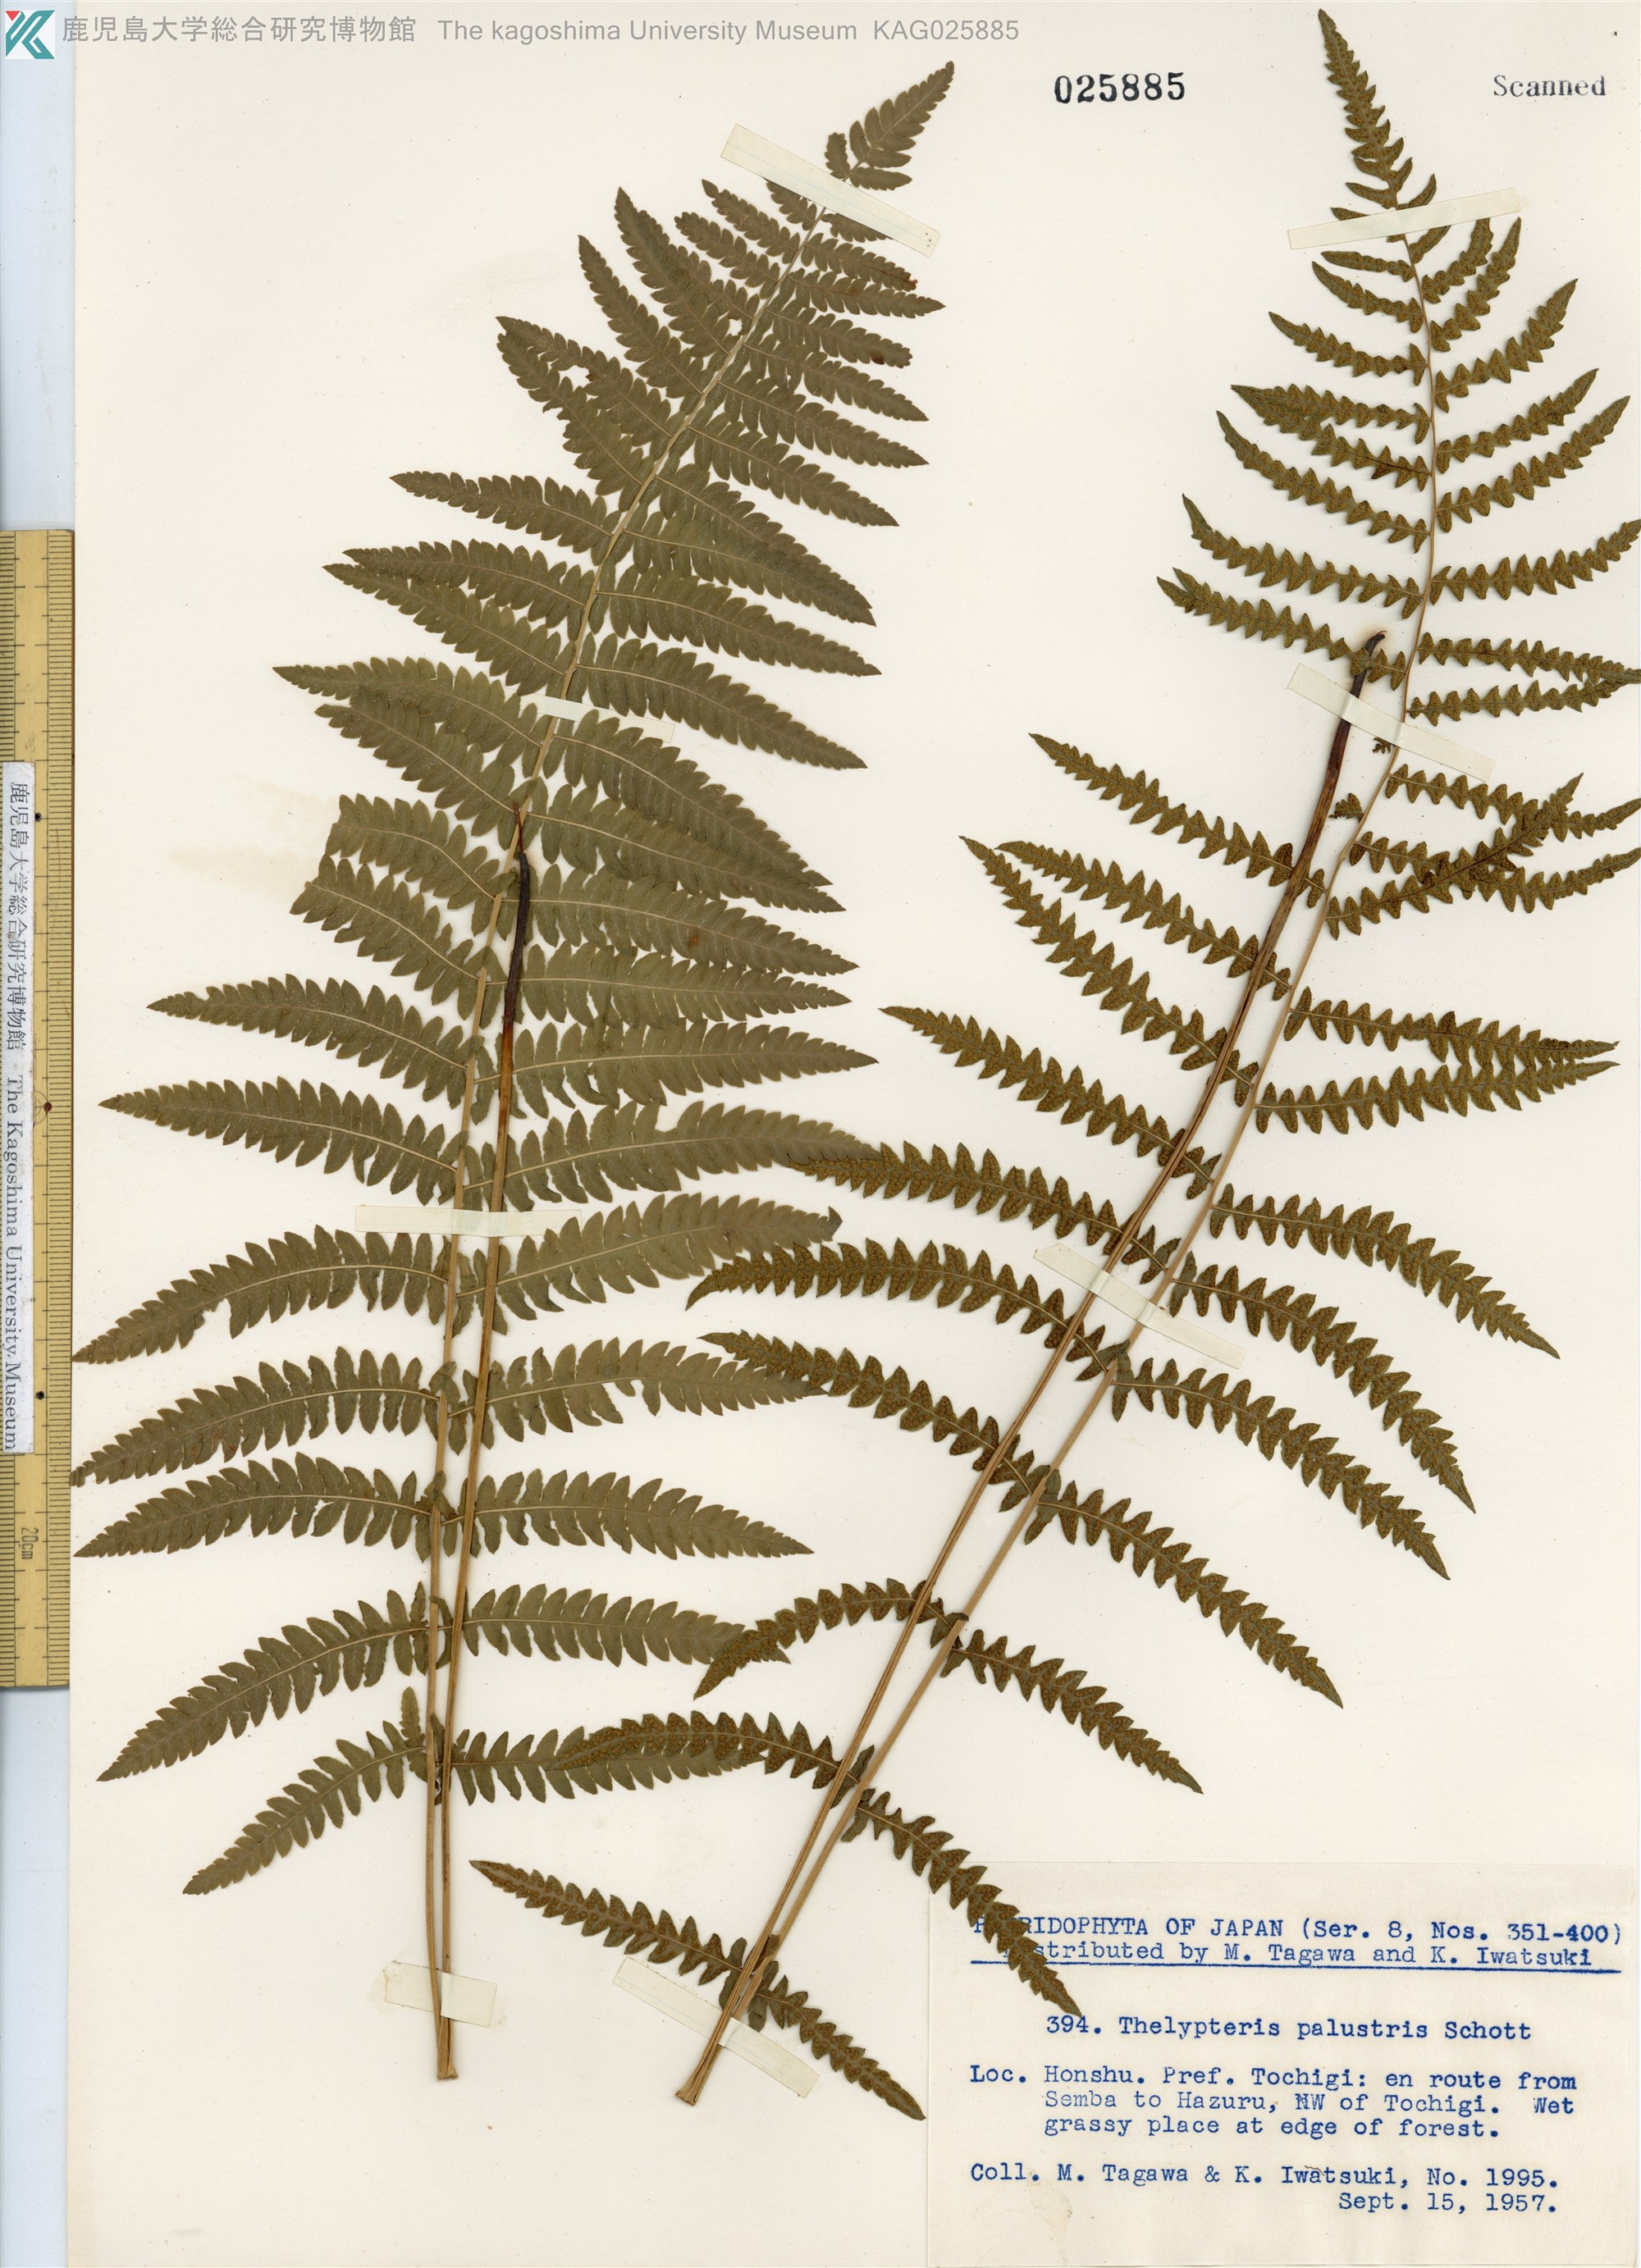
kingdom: Plantae
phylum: Tracheophyta
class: Polypodiopsida
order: Polypodiales
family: Thelypteridaceae
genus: Thelypteris
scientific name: Thelypteris palustris
